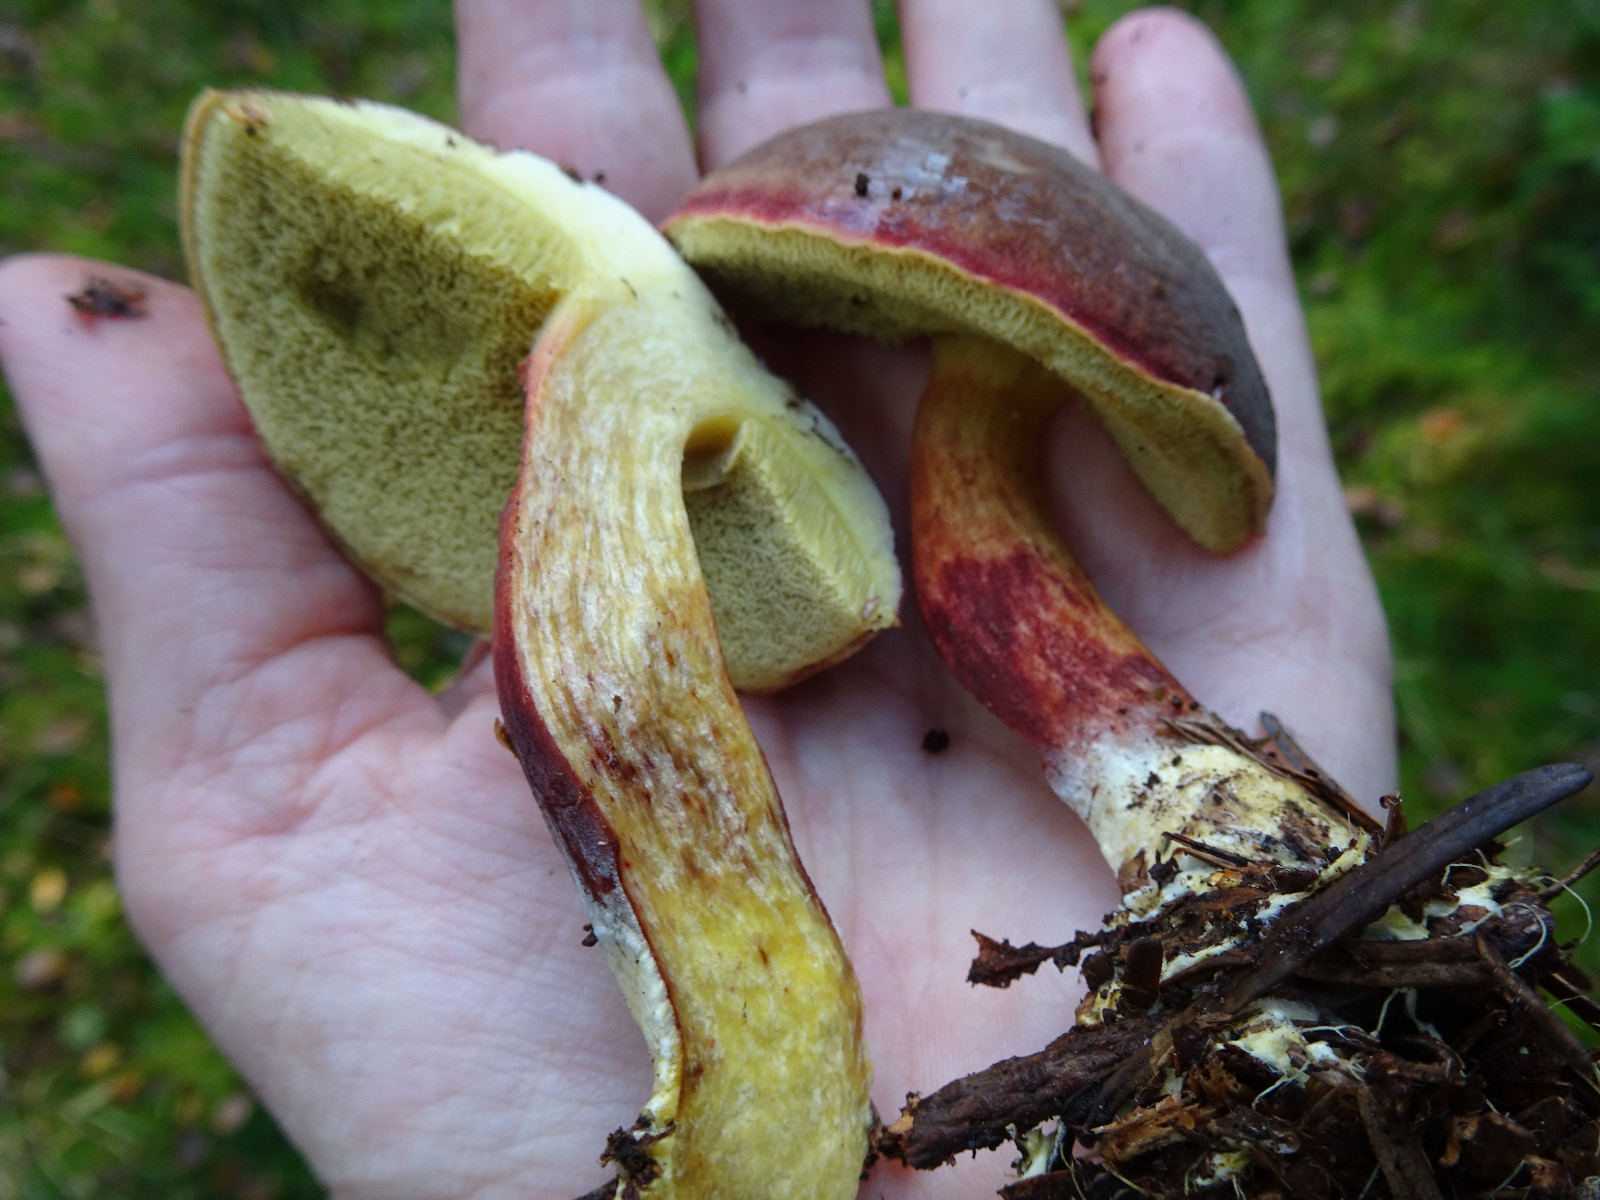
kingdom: Fungi
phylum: Basidiomycota
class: Agaricomycetes
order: Boletales
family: Boletaceae
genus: Xerocomellus
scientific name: Xerocomellus pruinatus
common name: dugget rørhat
